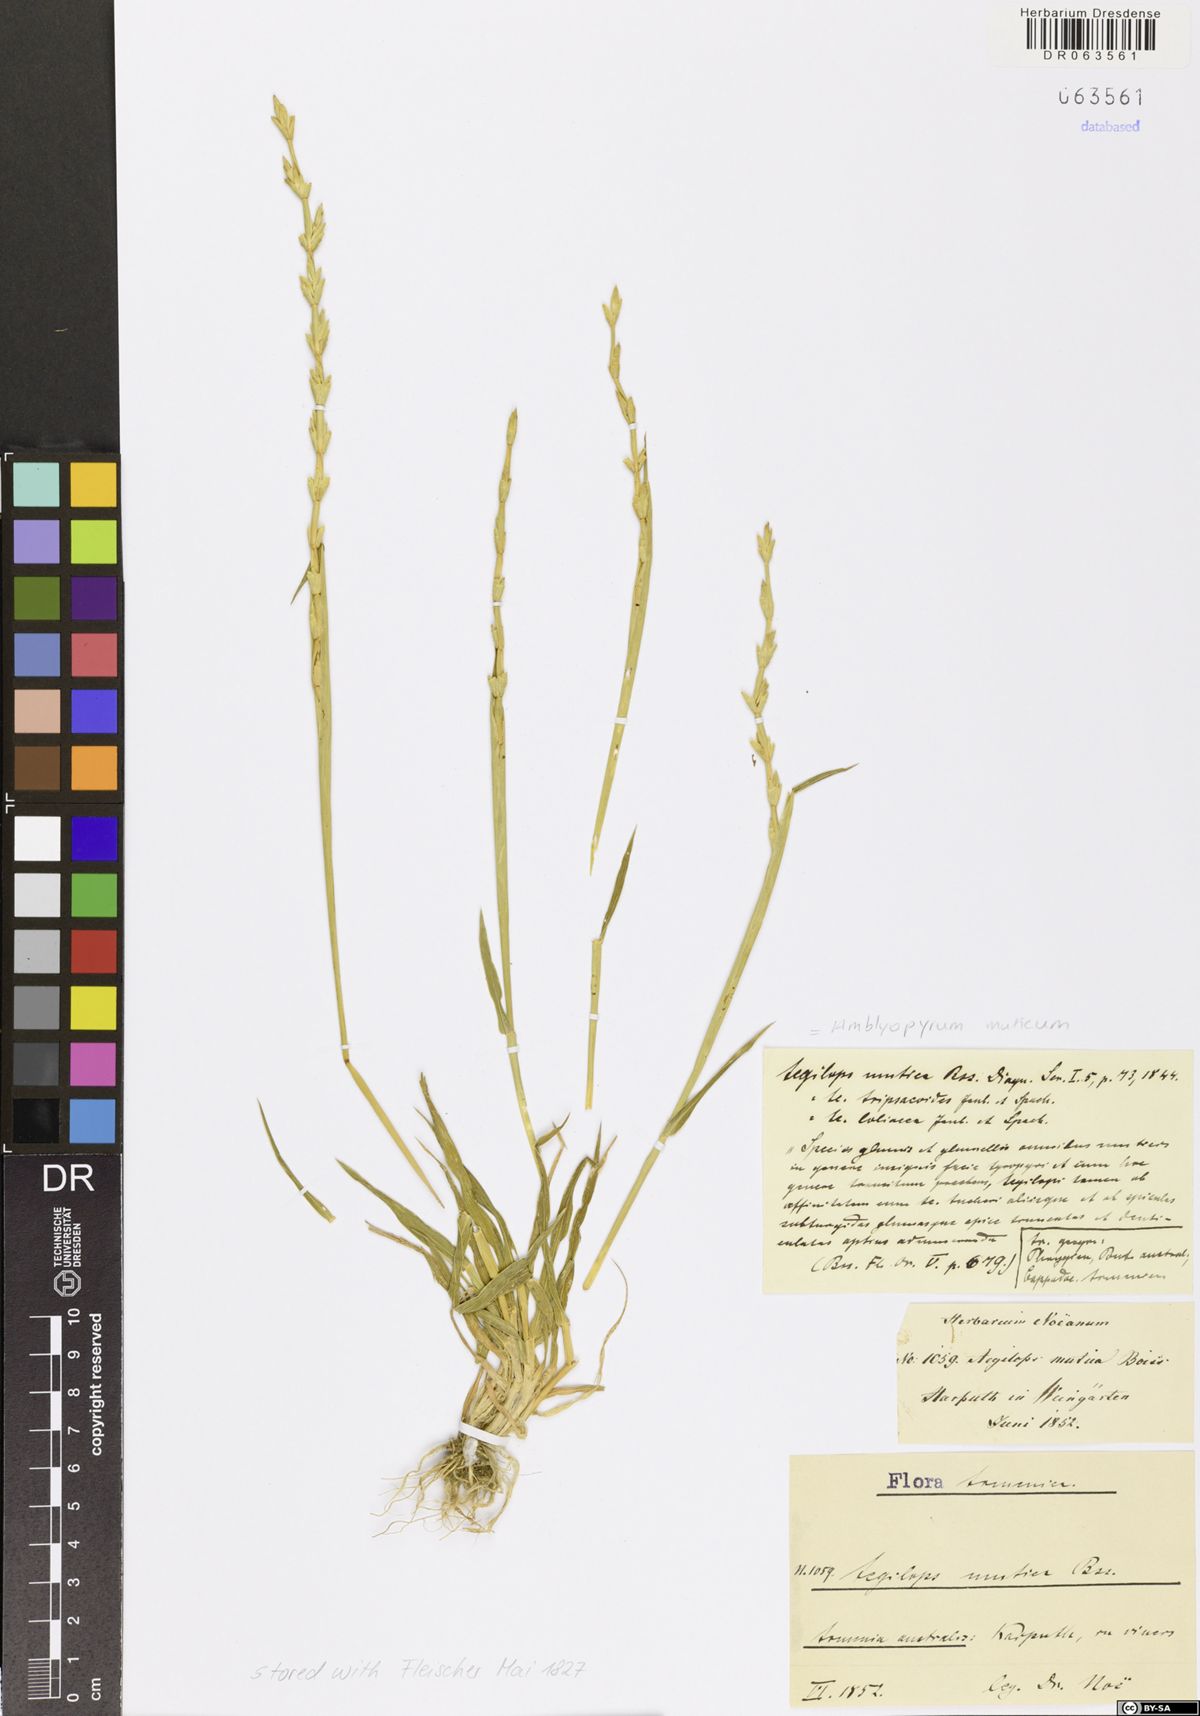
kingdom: Plantae
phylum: Tracheophyta
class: Liliopsida
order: Poales
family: Poaceae
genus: Aegilops
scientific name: Aegilops mutica
